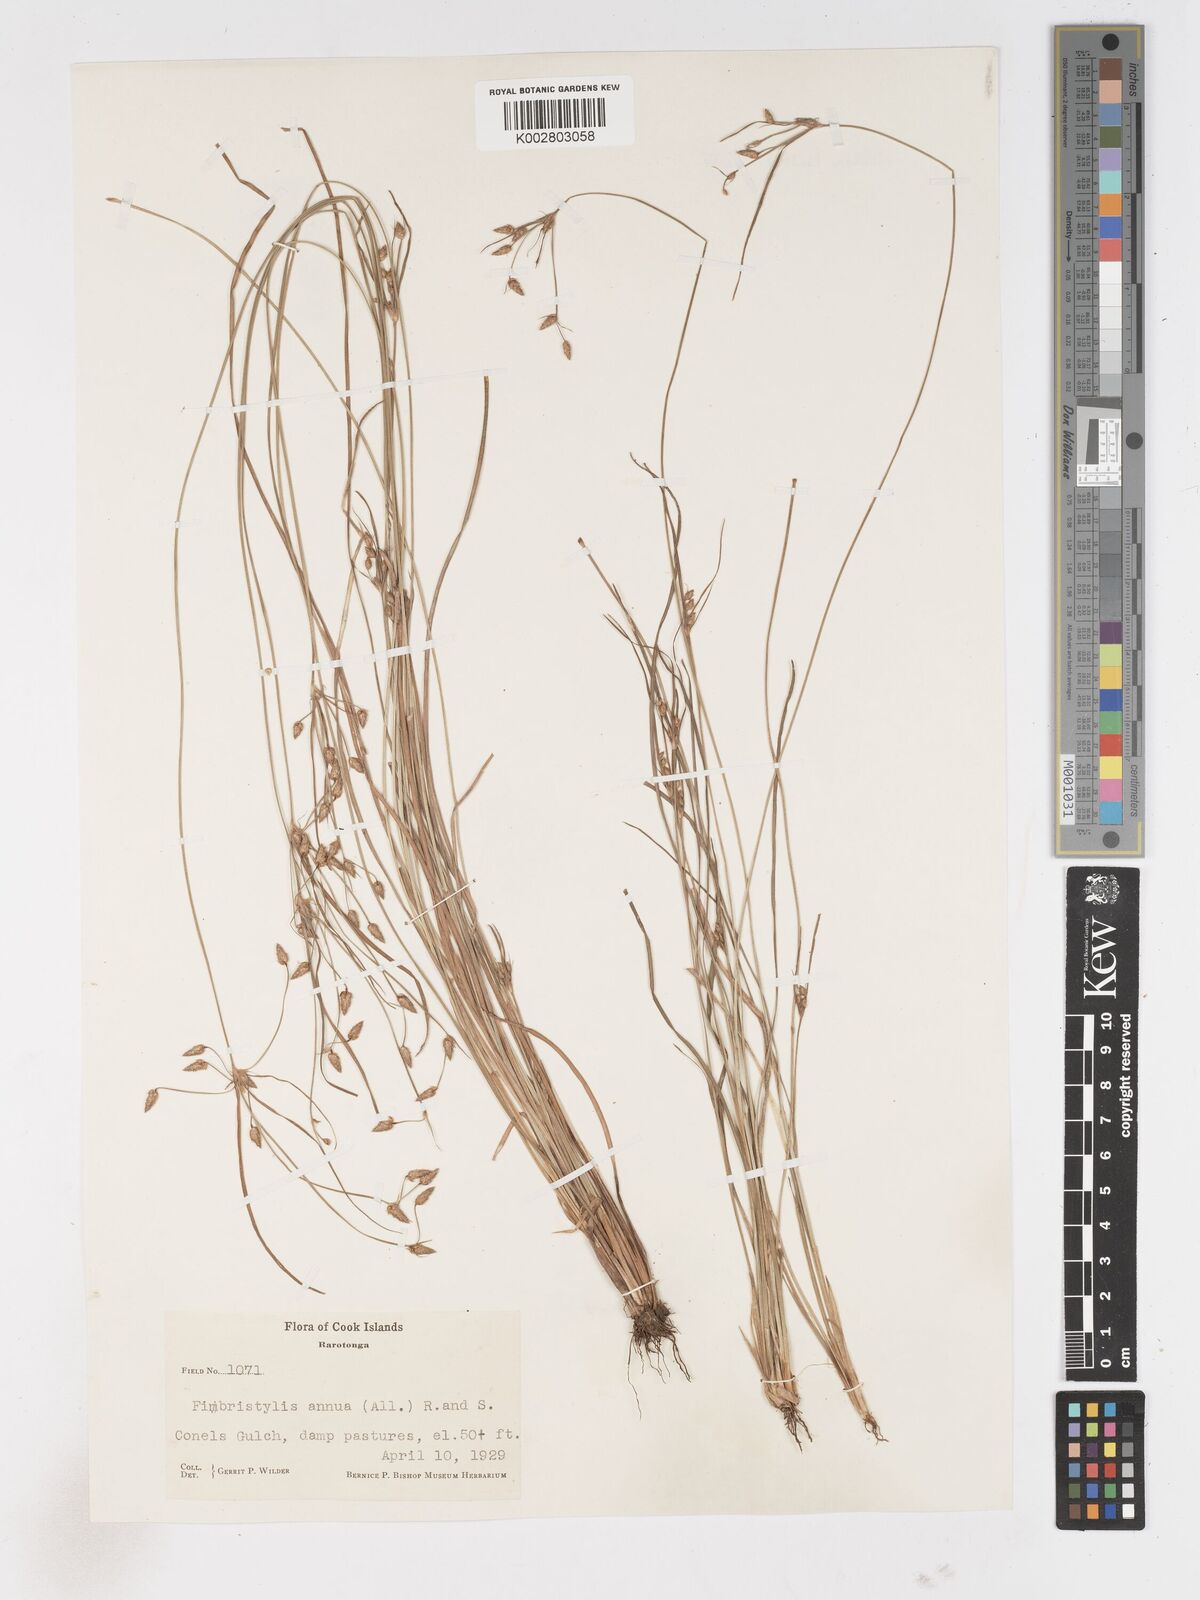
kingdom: Plantae
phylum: Tracheophyta
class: Liliopsida
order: Poales
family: Cyperaceae
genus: Fimbristylis
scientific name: Fimbristylis dichotoma
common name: Forked fimbry
